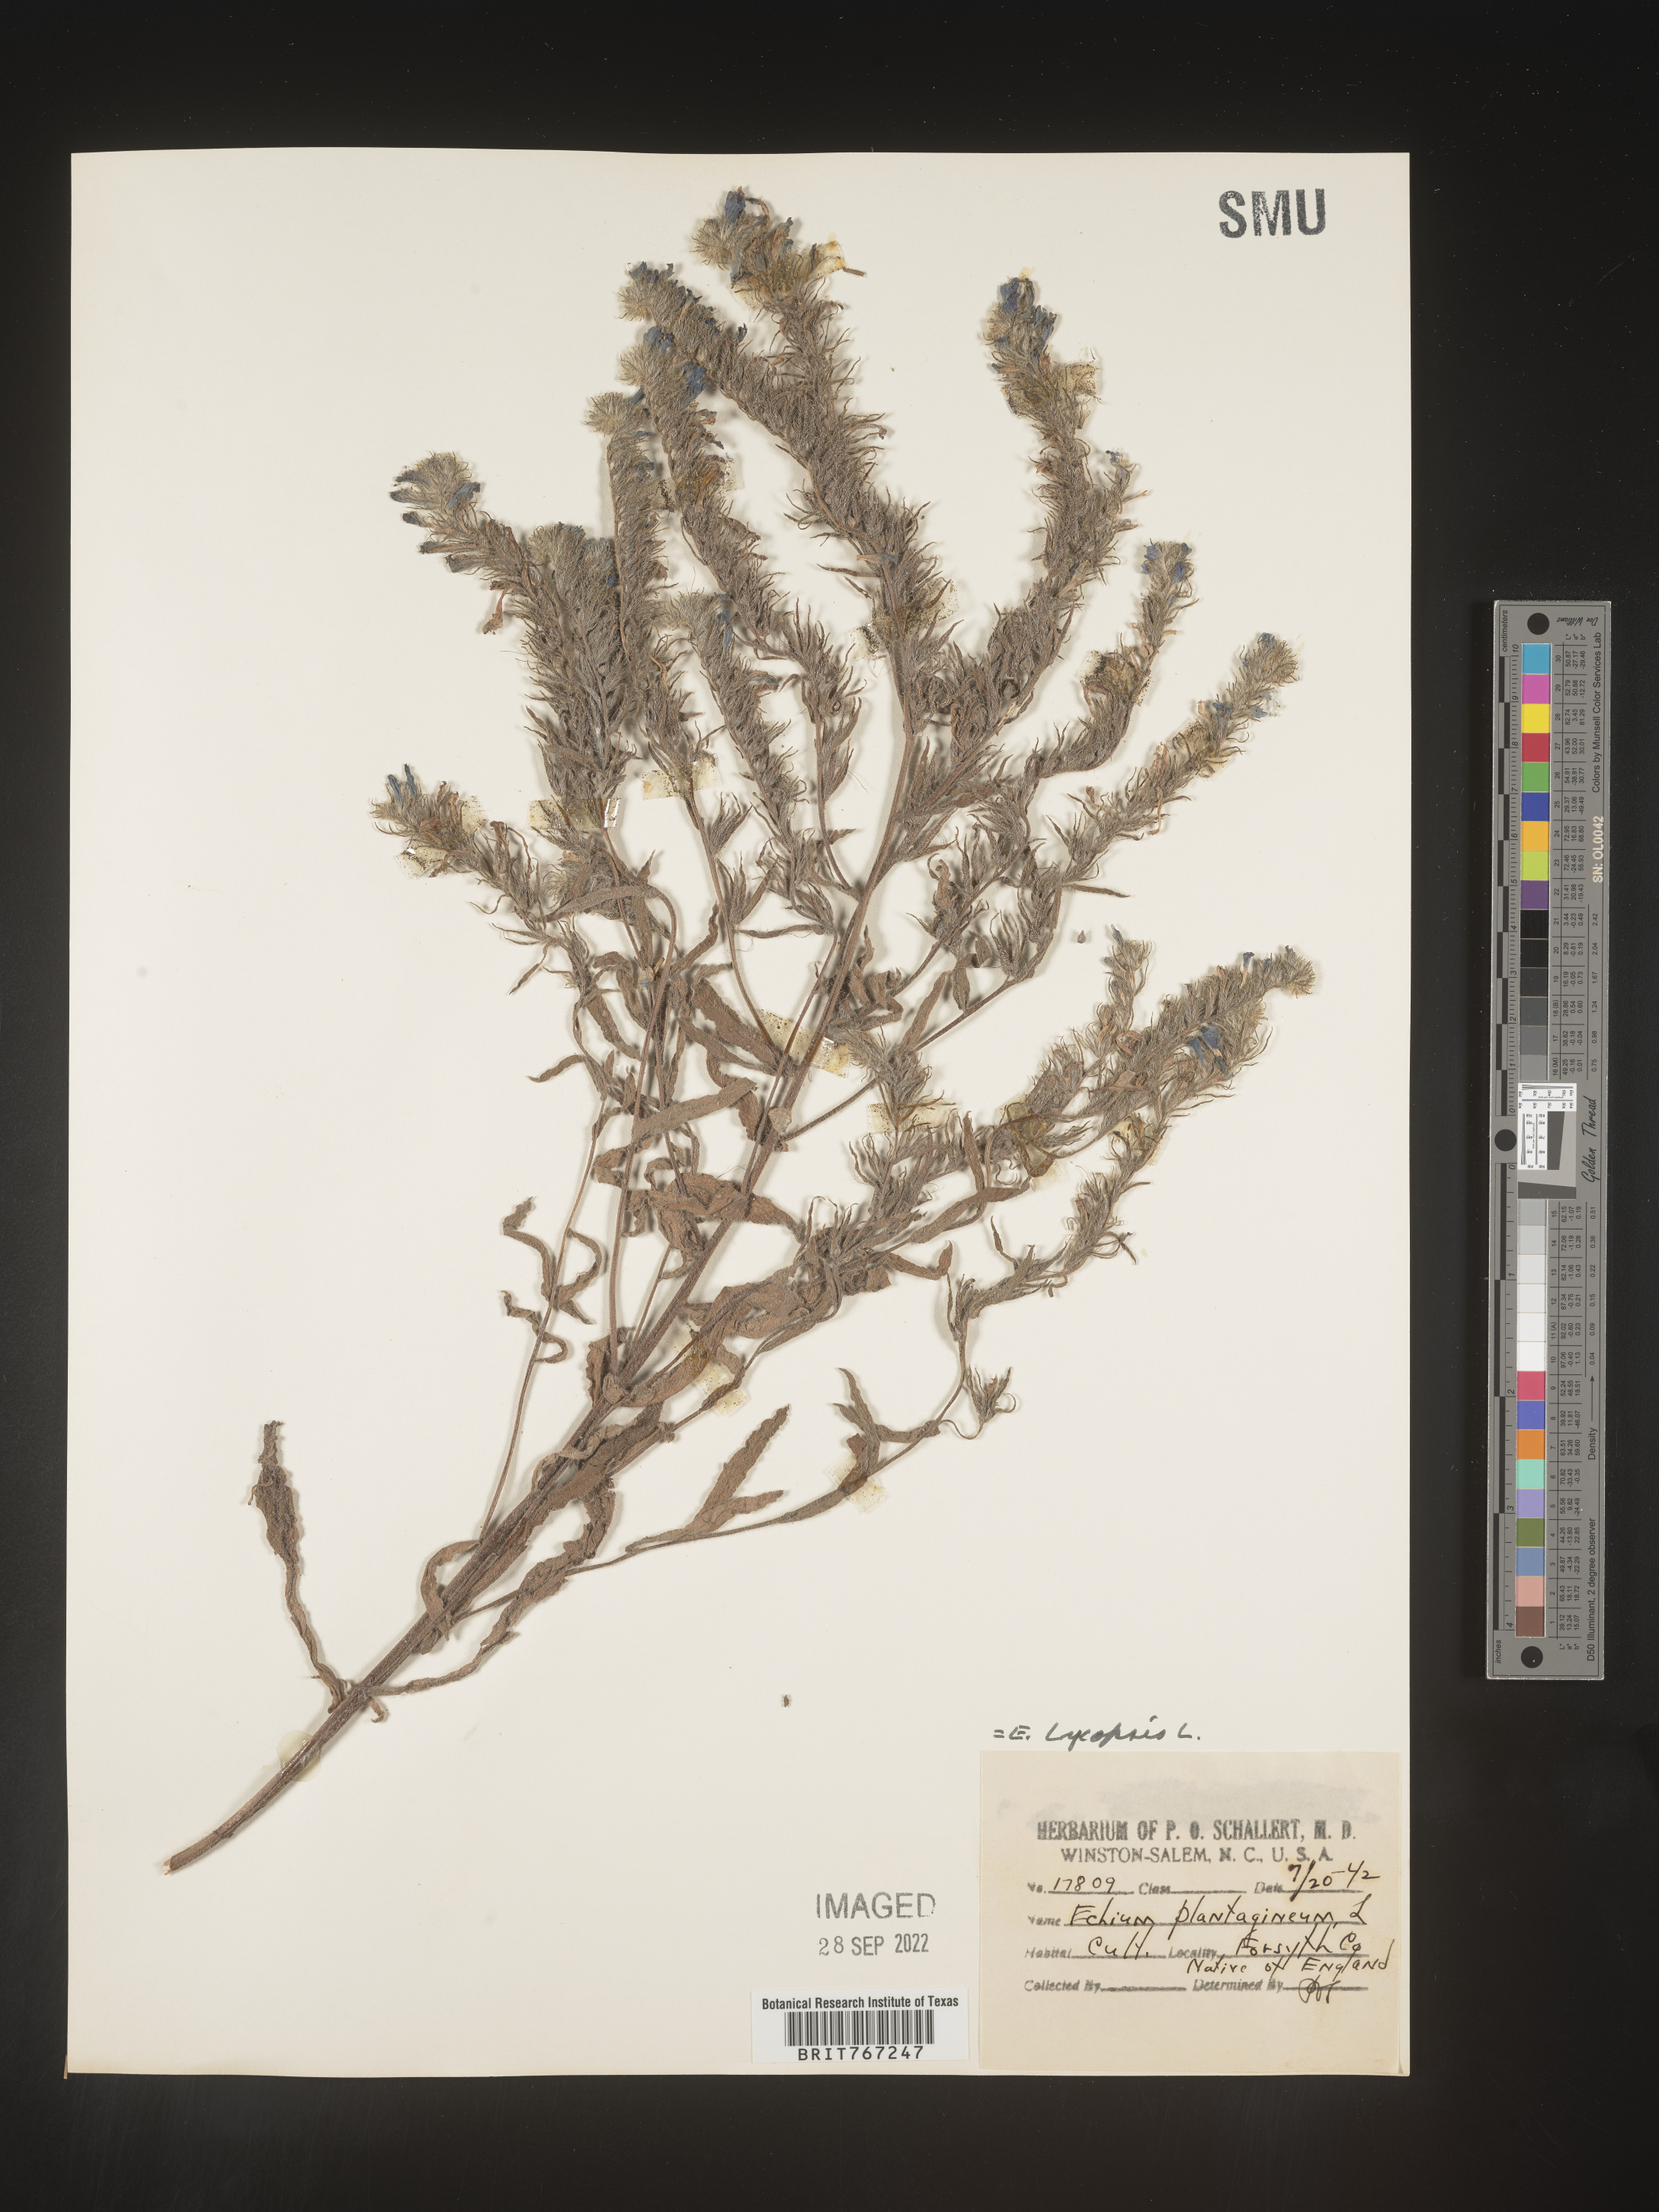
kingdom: Plantae
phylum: Tracheophyta
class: Magnoliopsida
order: Boraginales
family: Boraginaceae
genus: Echium
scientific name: Echium
